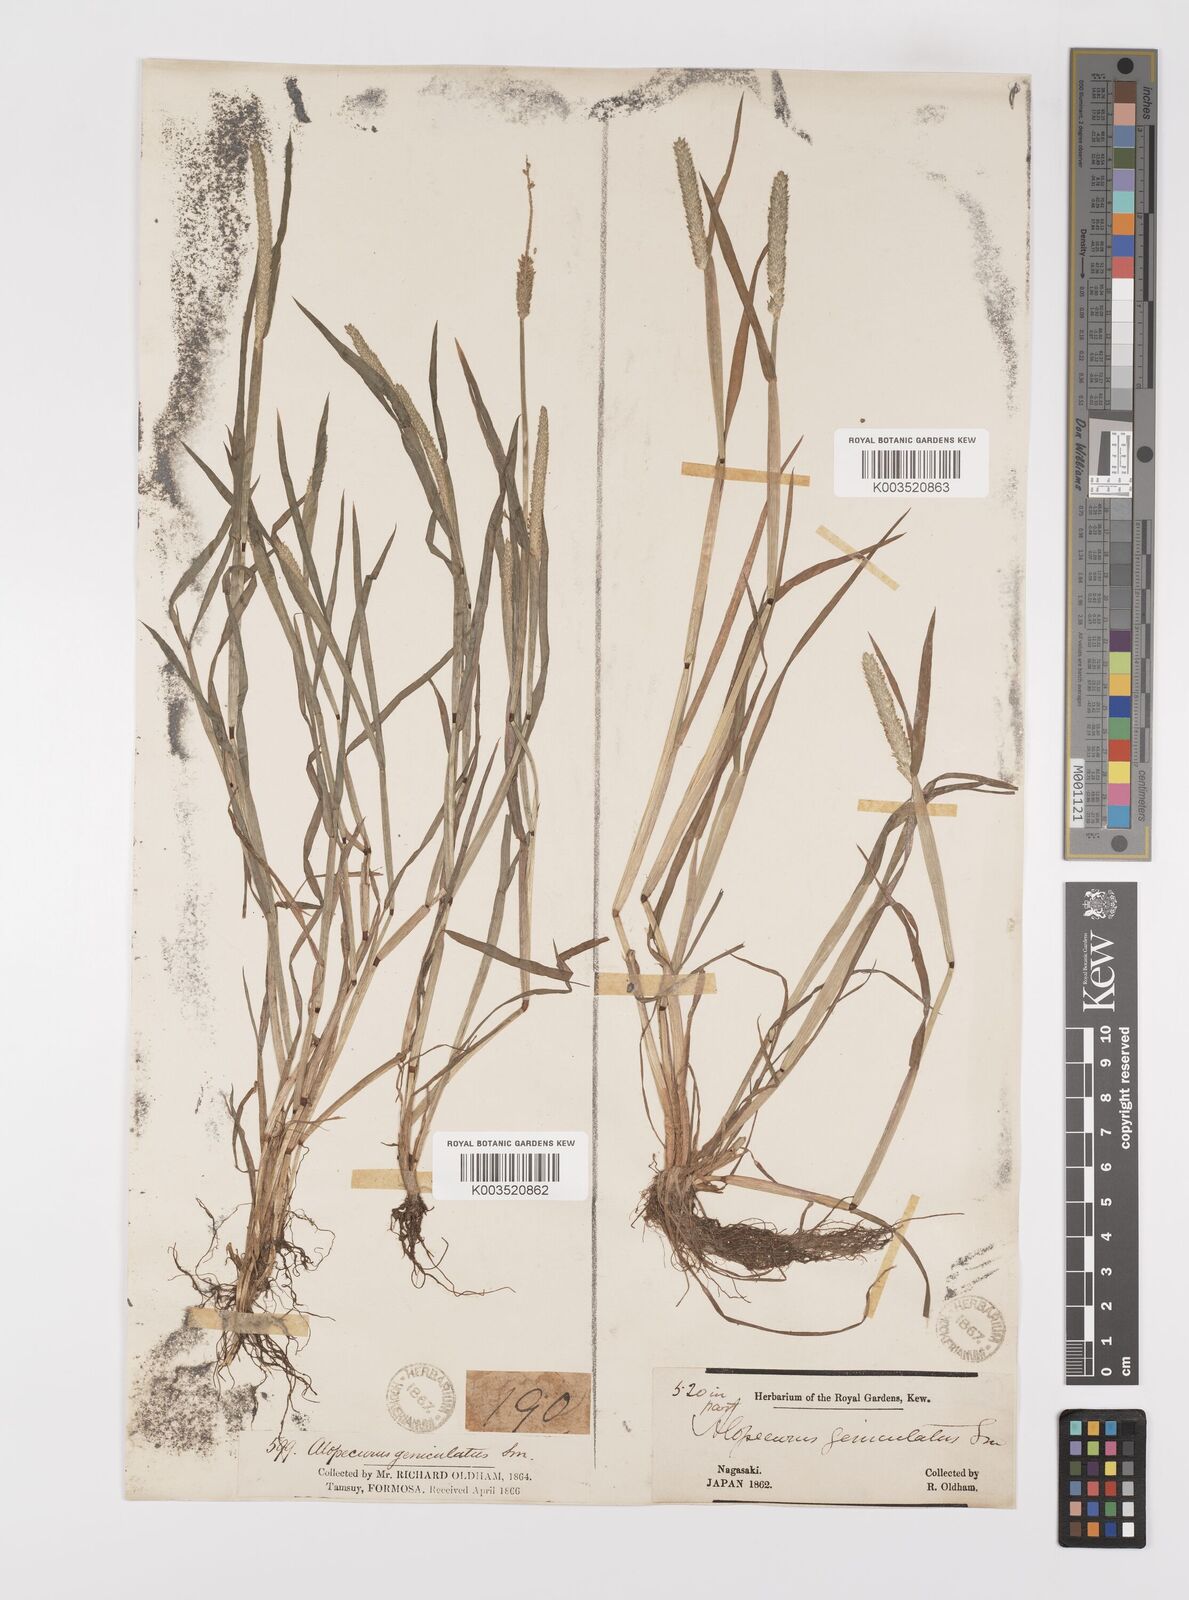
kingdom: Plantae
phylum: Tracheophyta
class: Liliopsida
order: Poales
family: Poaceae
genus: Alopecurus
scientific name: Alopecurus aequalis
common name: Orange foxtail
